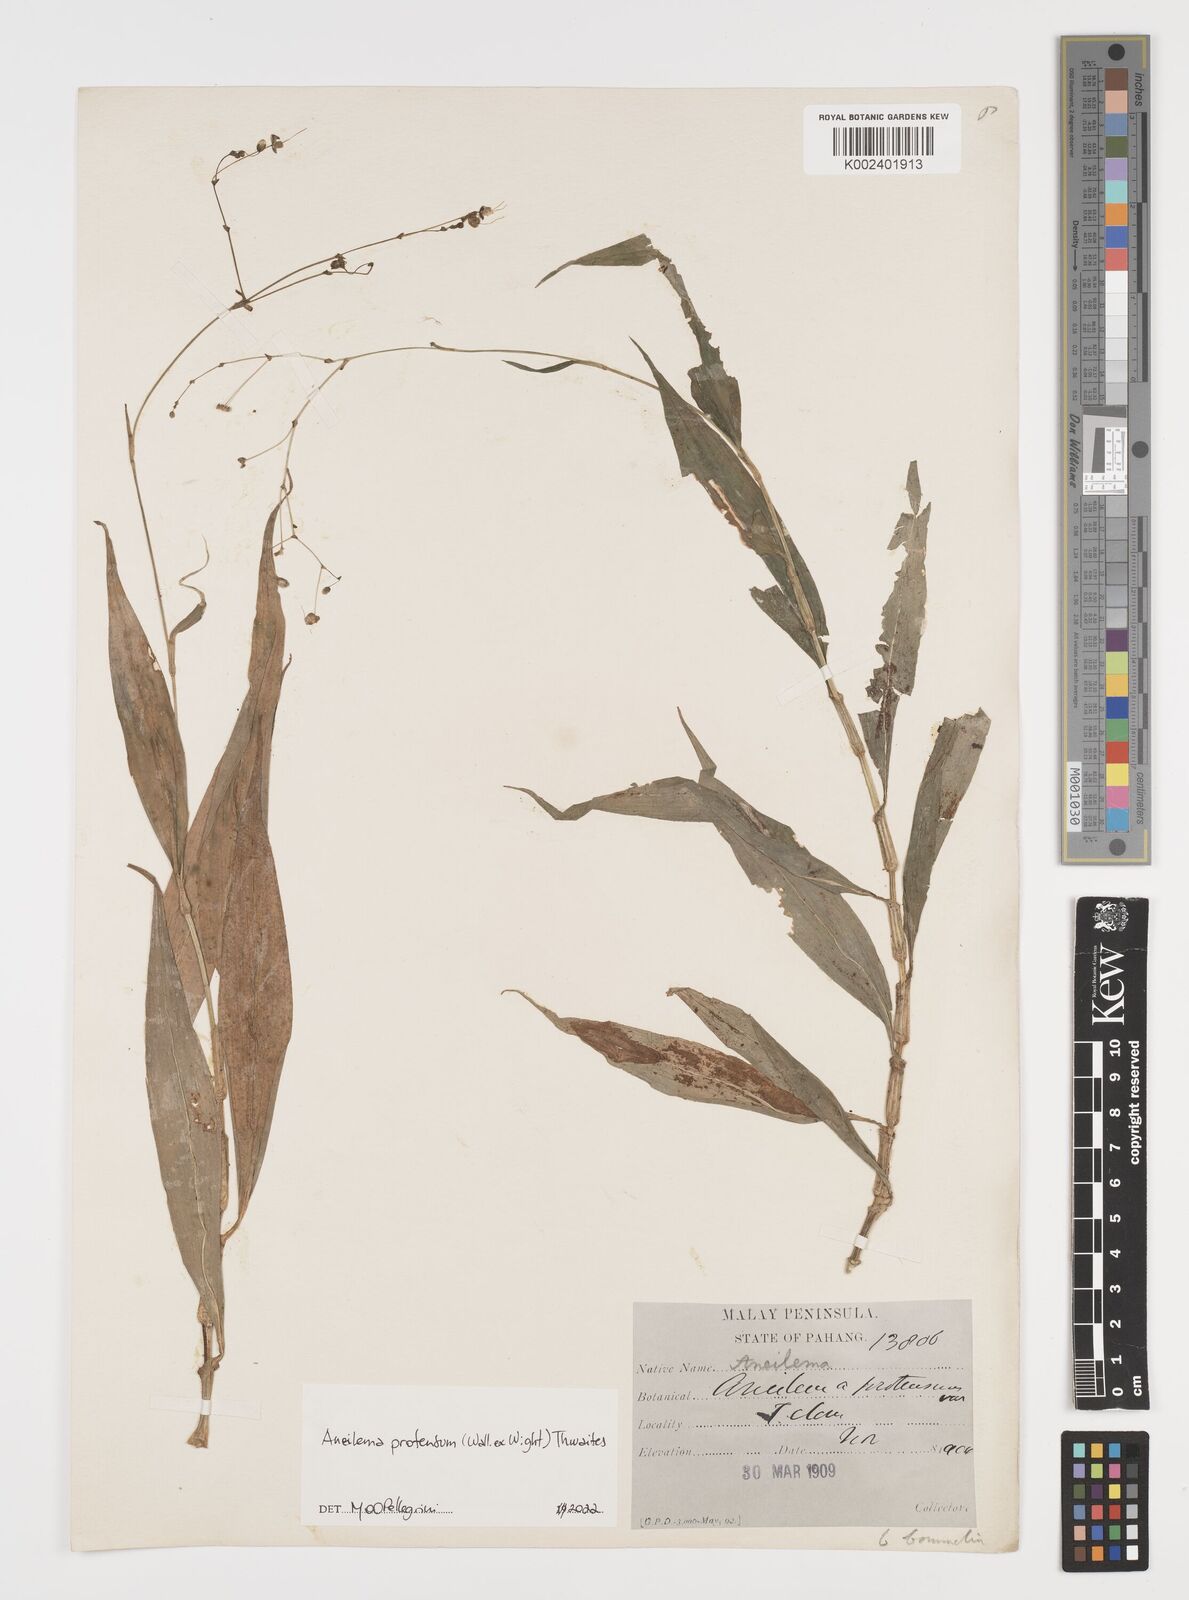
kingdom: Plantae
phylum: Tracheophyta
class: Liliopsida
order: Commelinales
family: Commelinaceae
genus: Rhopalephora
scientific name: Rhopalephora
